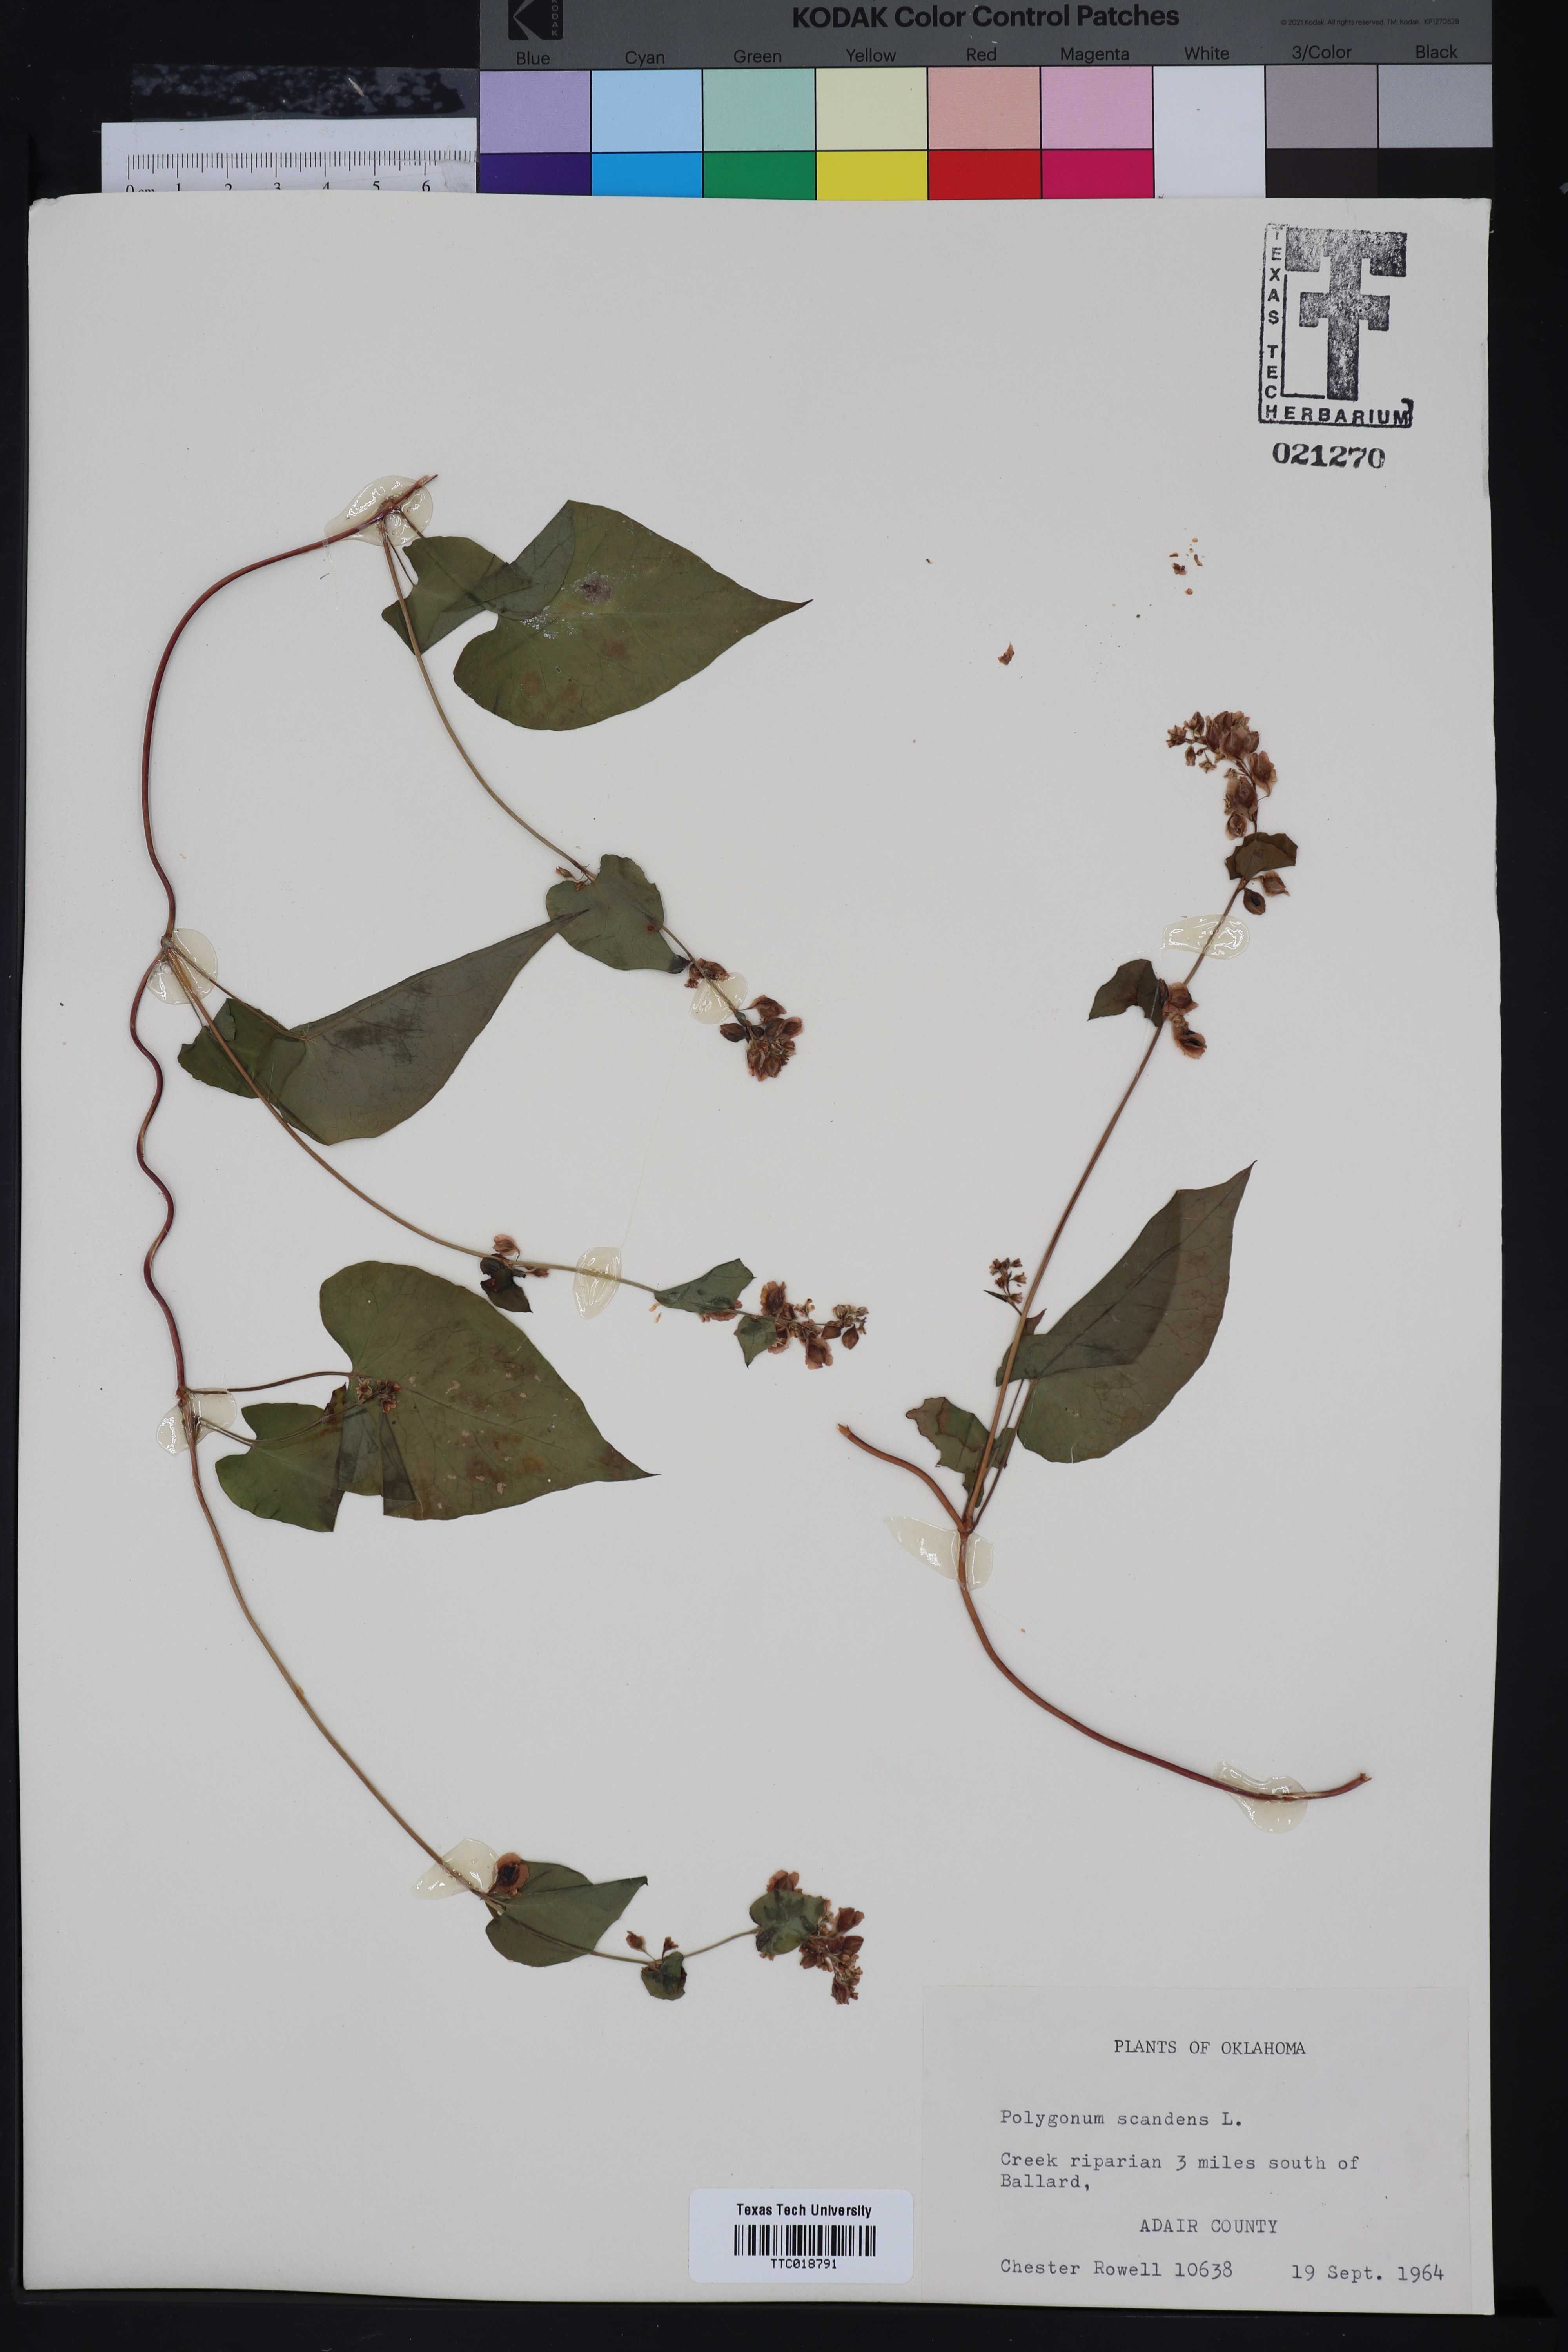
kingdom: Plantae
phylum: Tracheophyta
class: Magnoliopsida
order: Caryophyllales
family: Polygonaceae
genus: Fallopia
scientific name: Fallopia scandens
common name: Climbing false buckwheat
